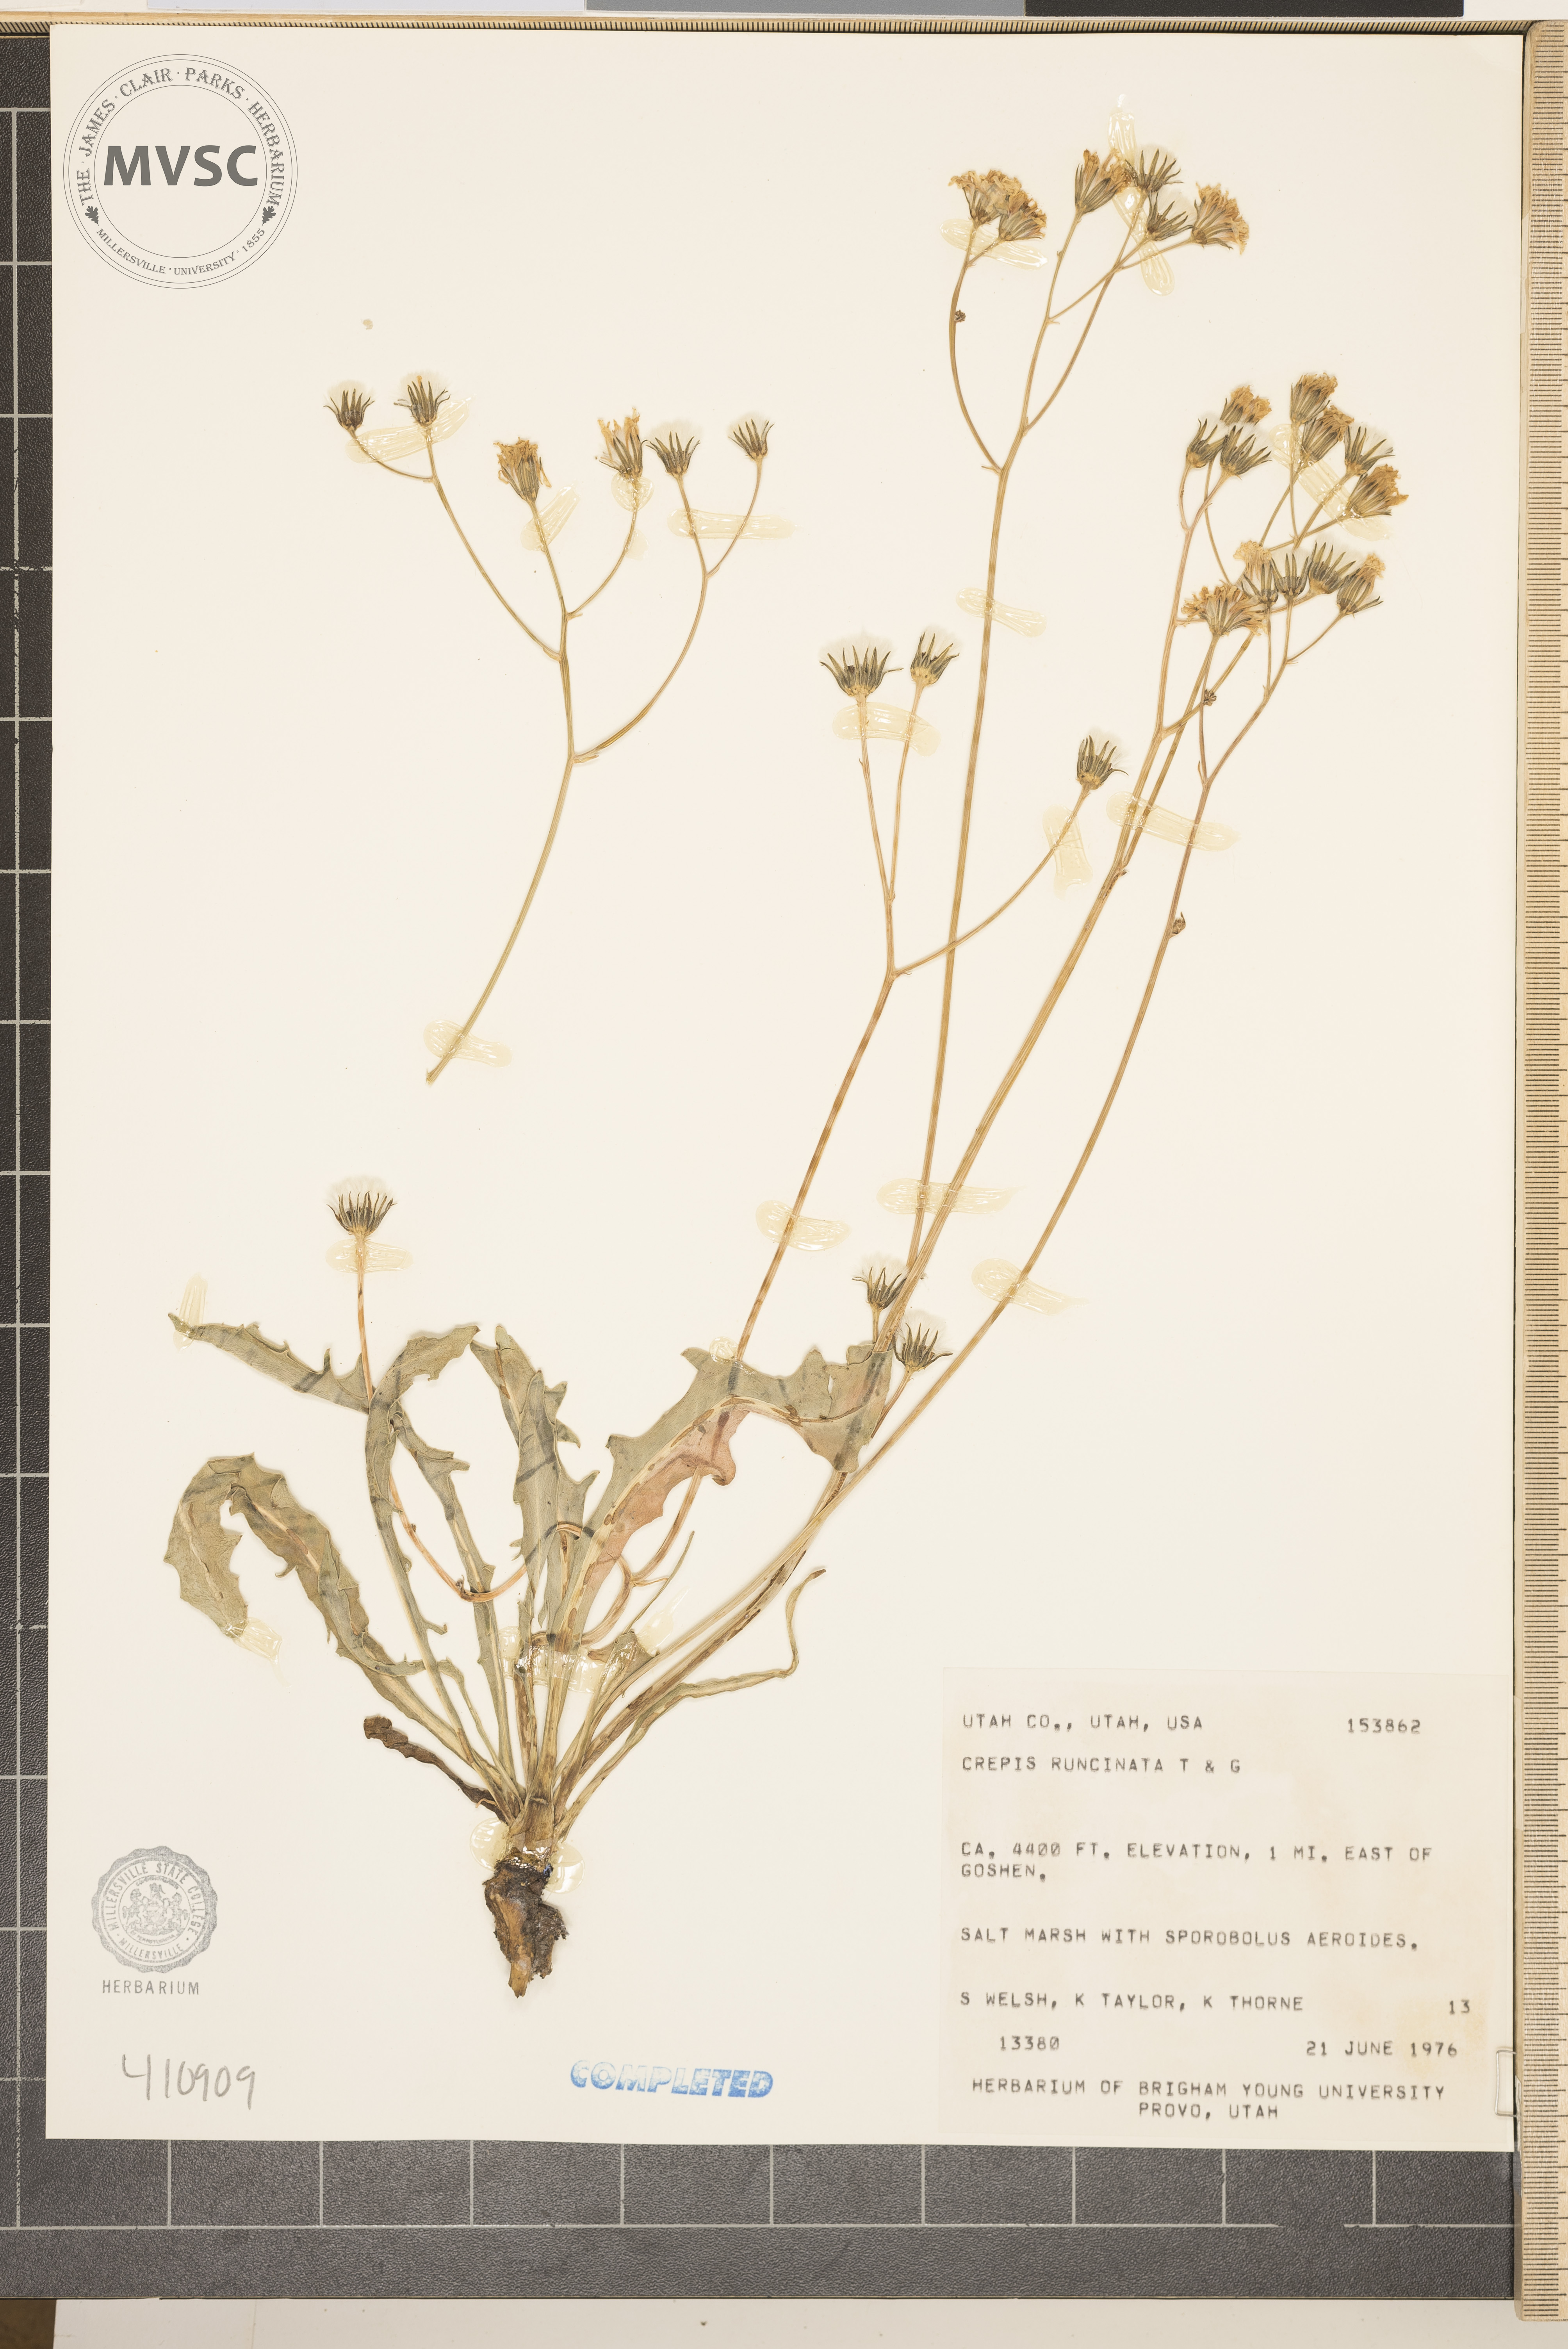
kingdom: Plantae
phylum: Tracheophyta
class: Magnoliopsida
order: Asterales
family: Asteraceae
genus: Crepis
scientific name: Crepis runcinata
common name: Dandelion hawksbeard
